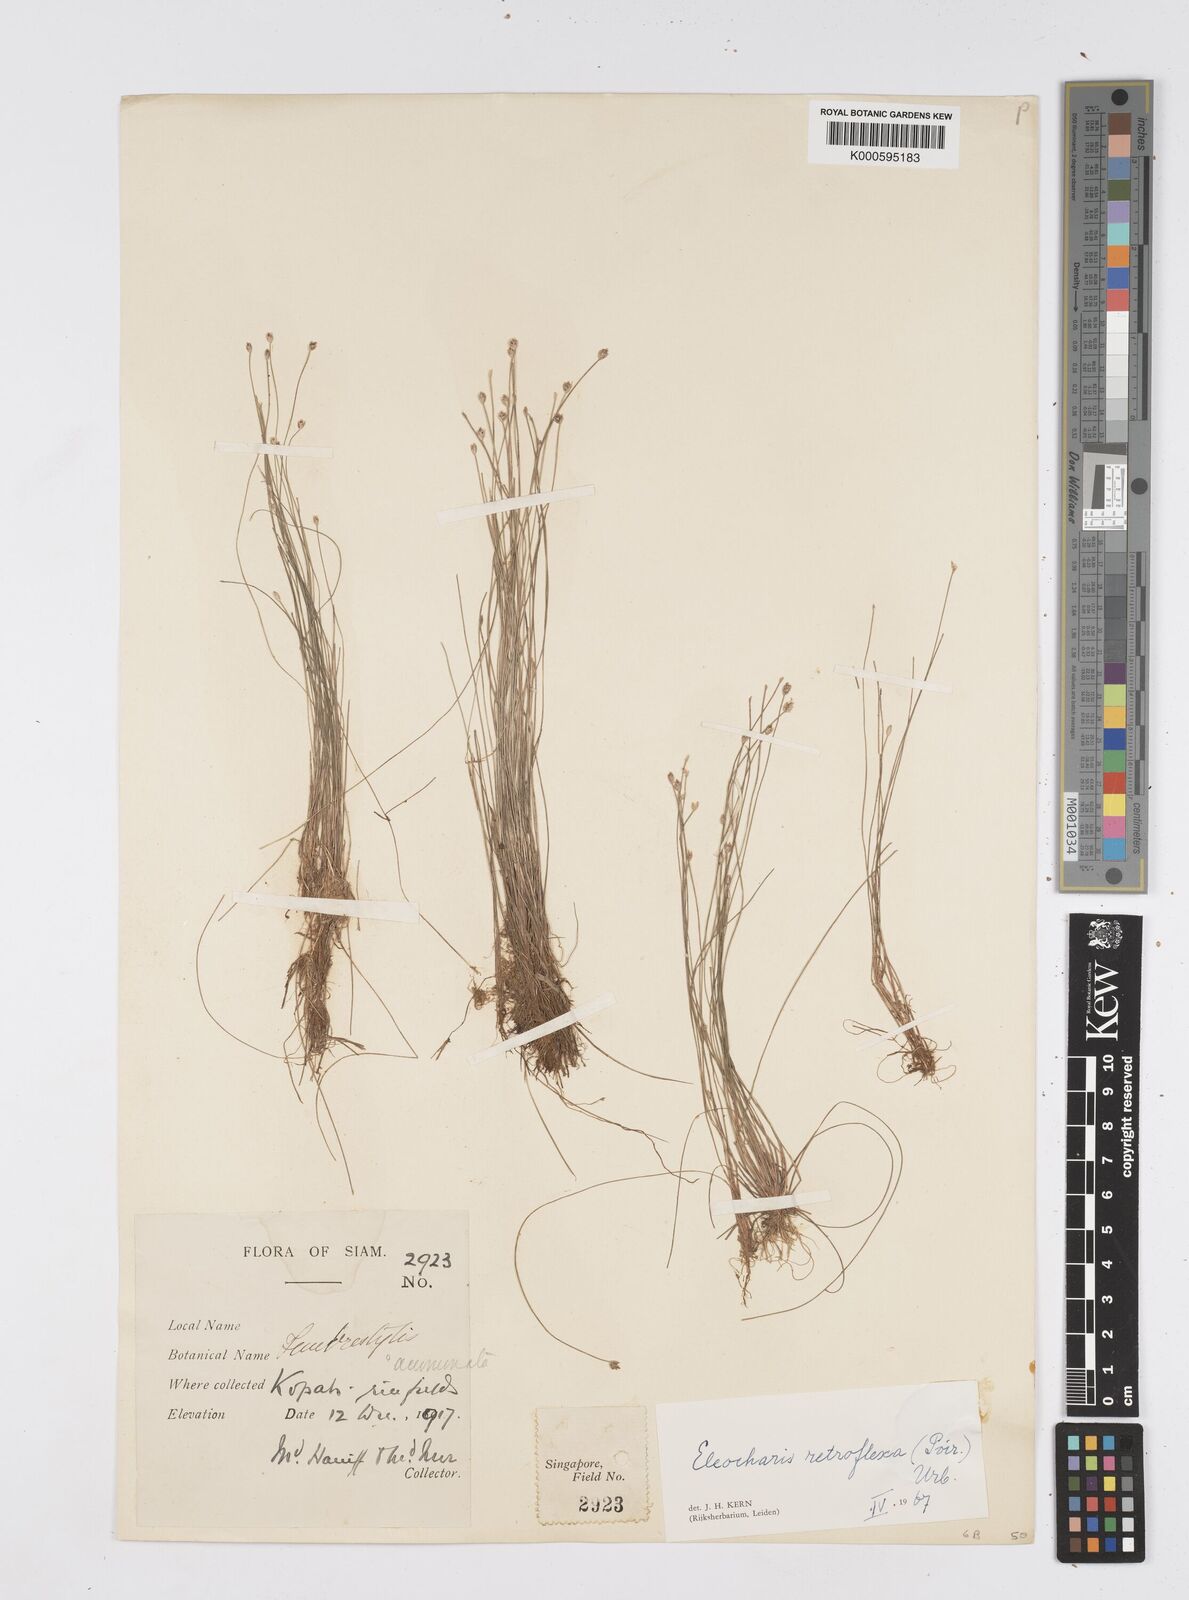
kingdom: Plantae
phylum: Tracheophyta
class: Liliopsida
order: Poales
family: Cyperaceae
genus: Eleocharis
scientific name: Eleocharis retroflexa
